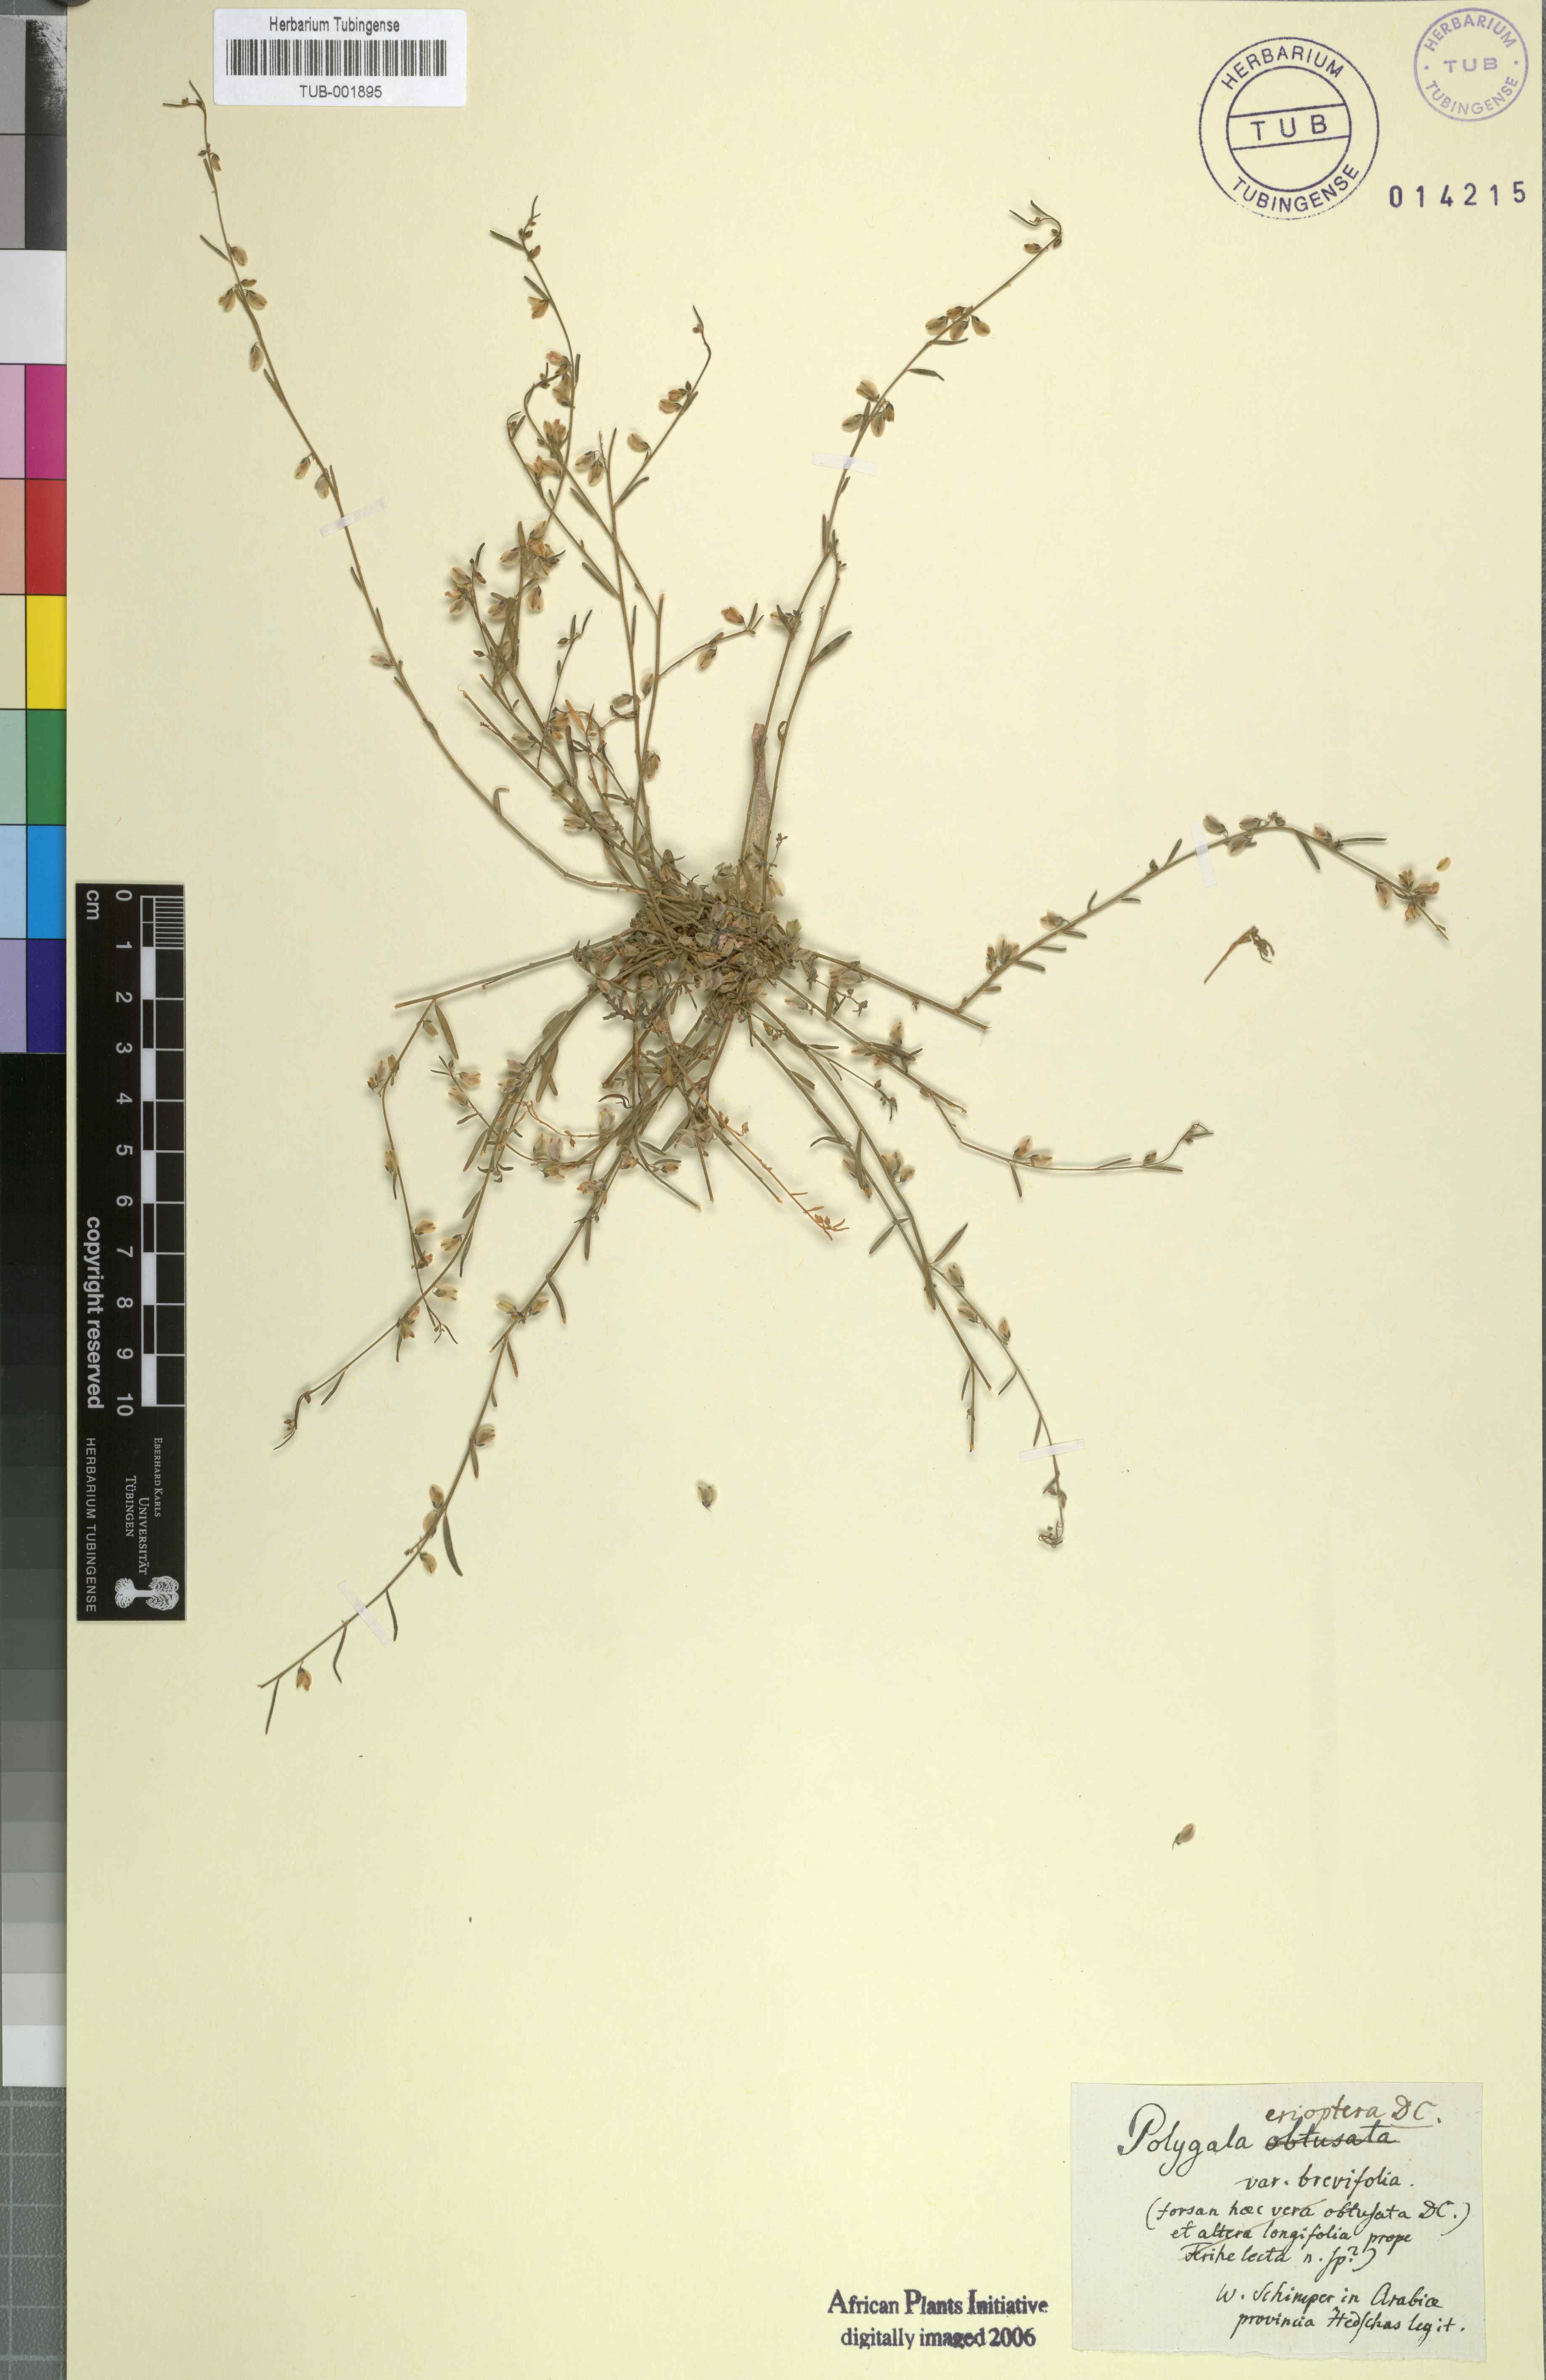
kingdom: Plantae
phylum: Tracheophyta
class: Magnoliopsida
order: Fabales
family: Polygalaceae
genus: Polygala
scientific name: Polygala erioptera
